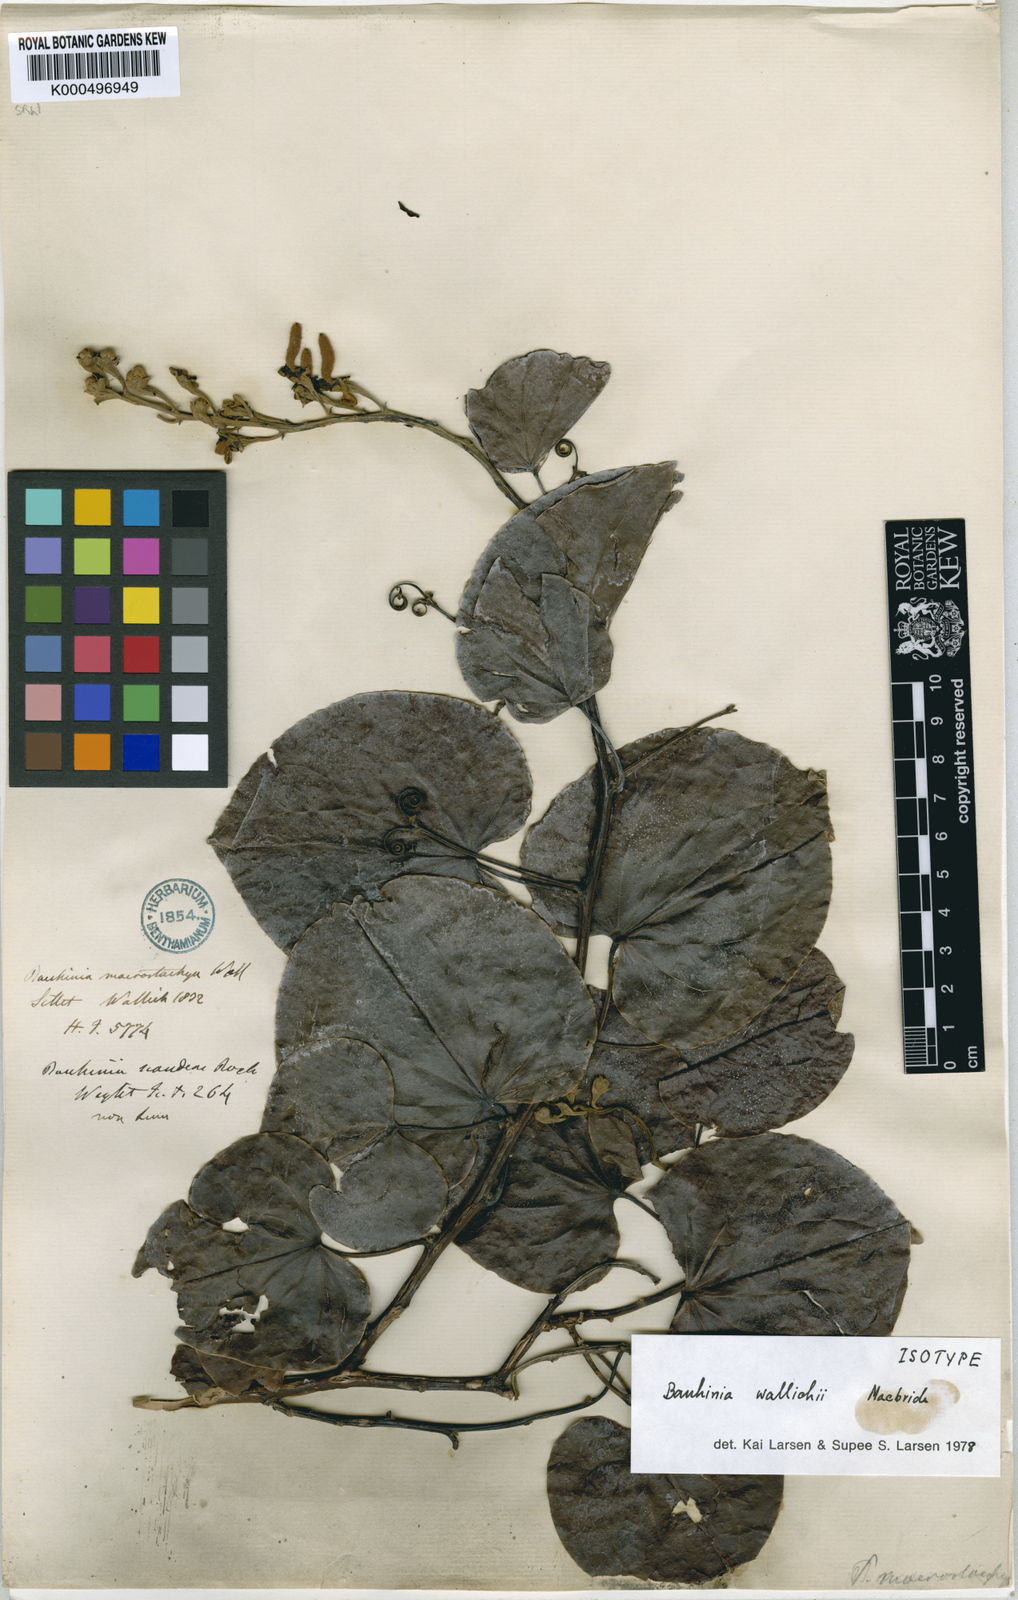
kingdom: Plantae
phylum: Tracheophyta
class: Magnoliopsida
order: Fabales
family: Fabaceae
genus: Phanera
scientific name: Phanera macrostachya
